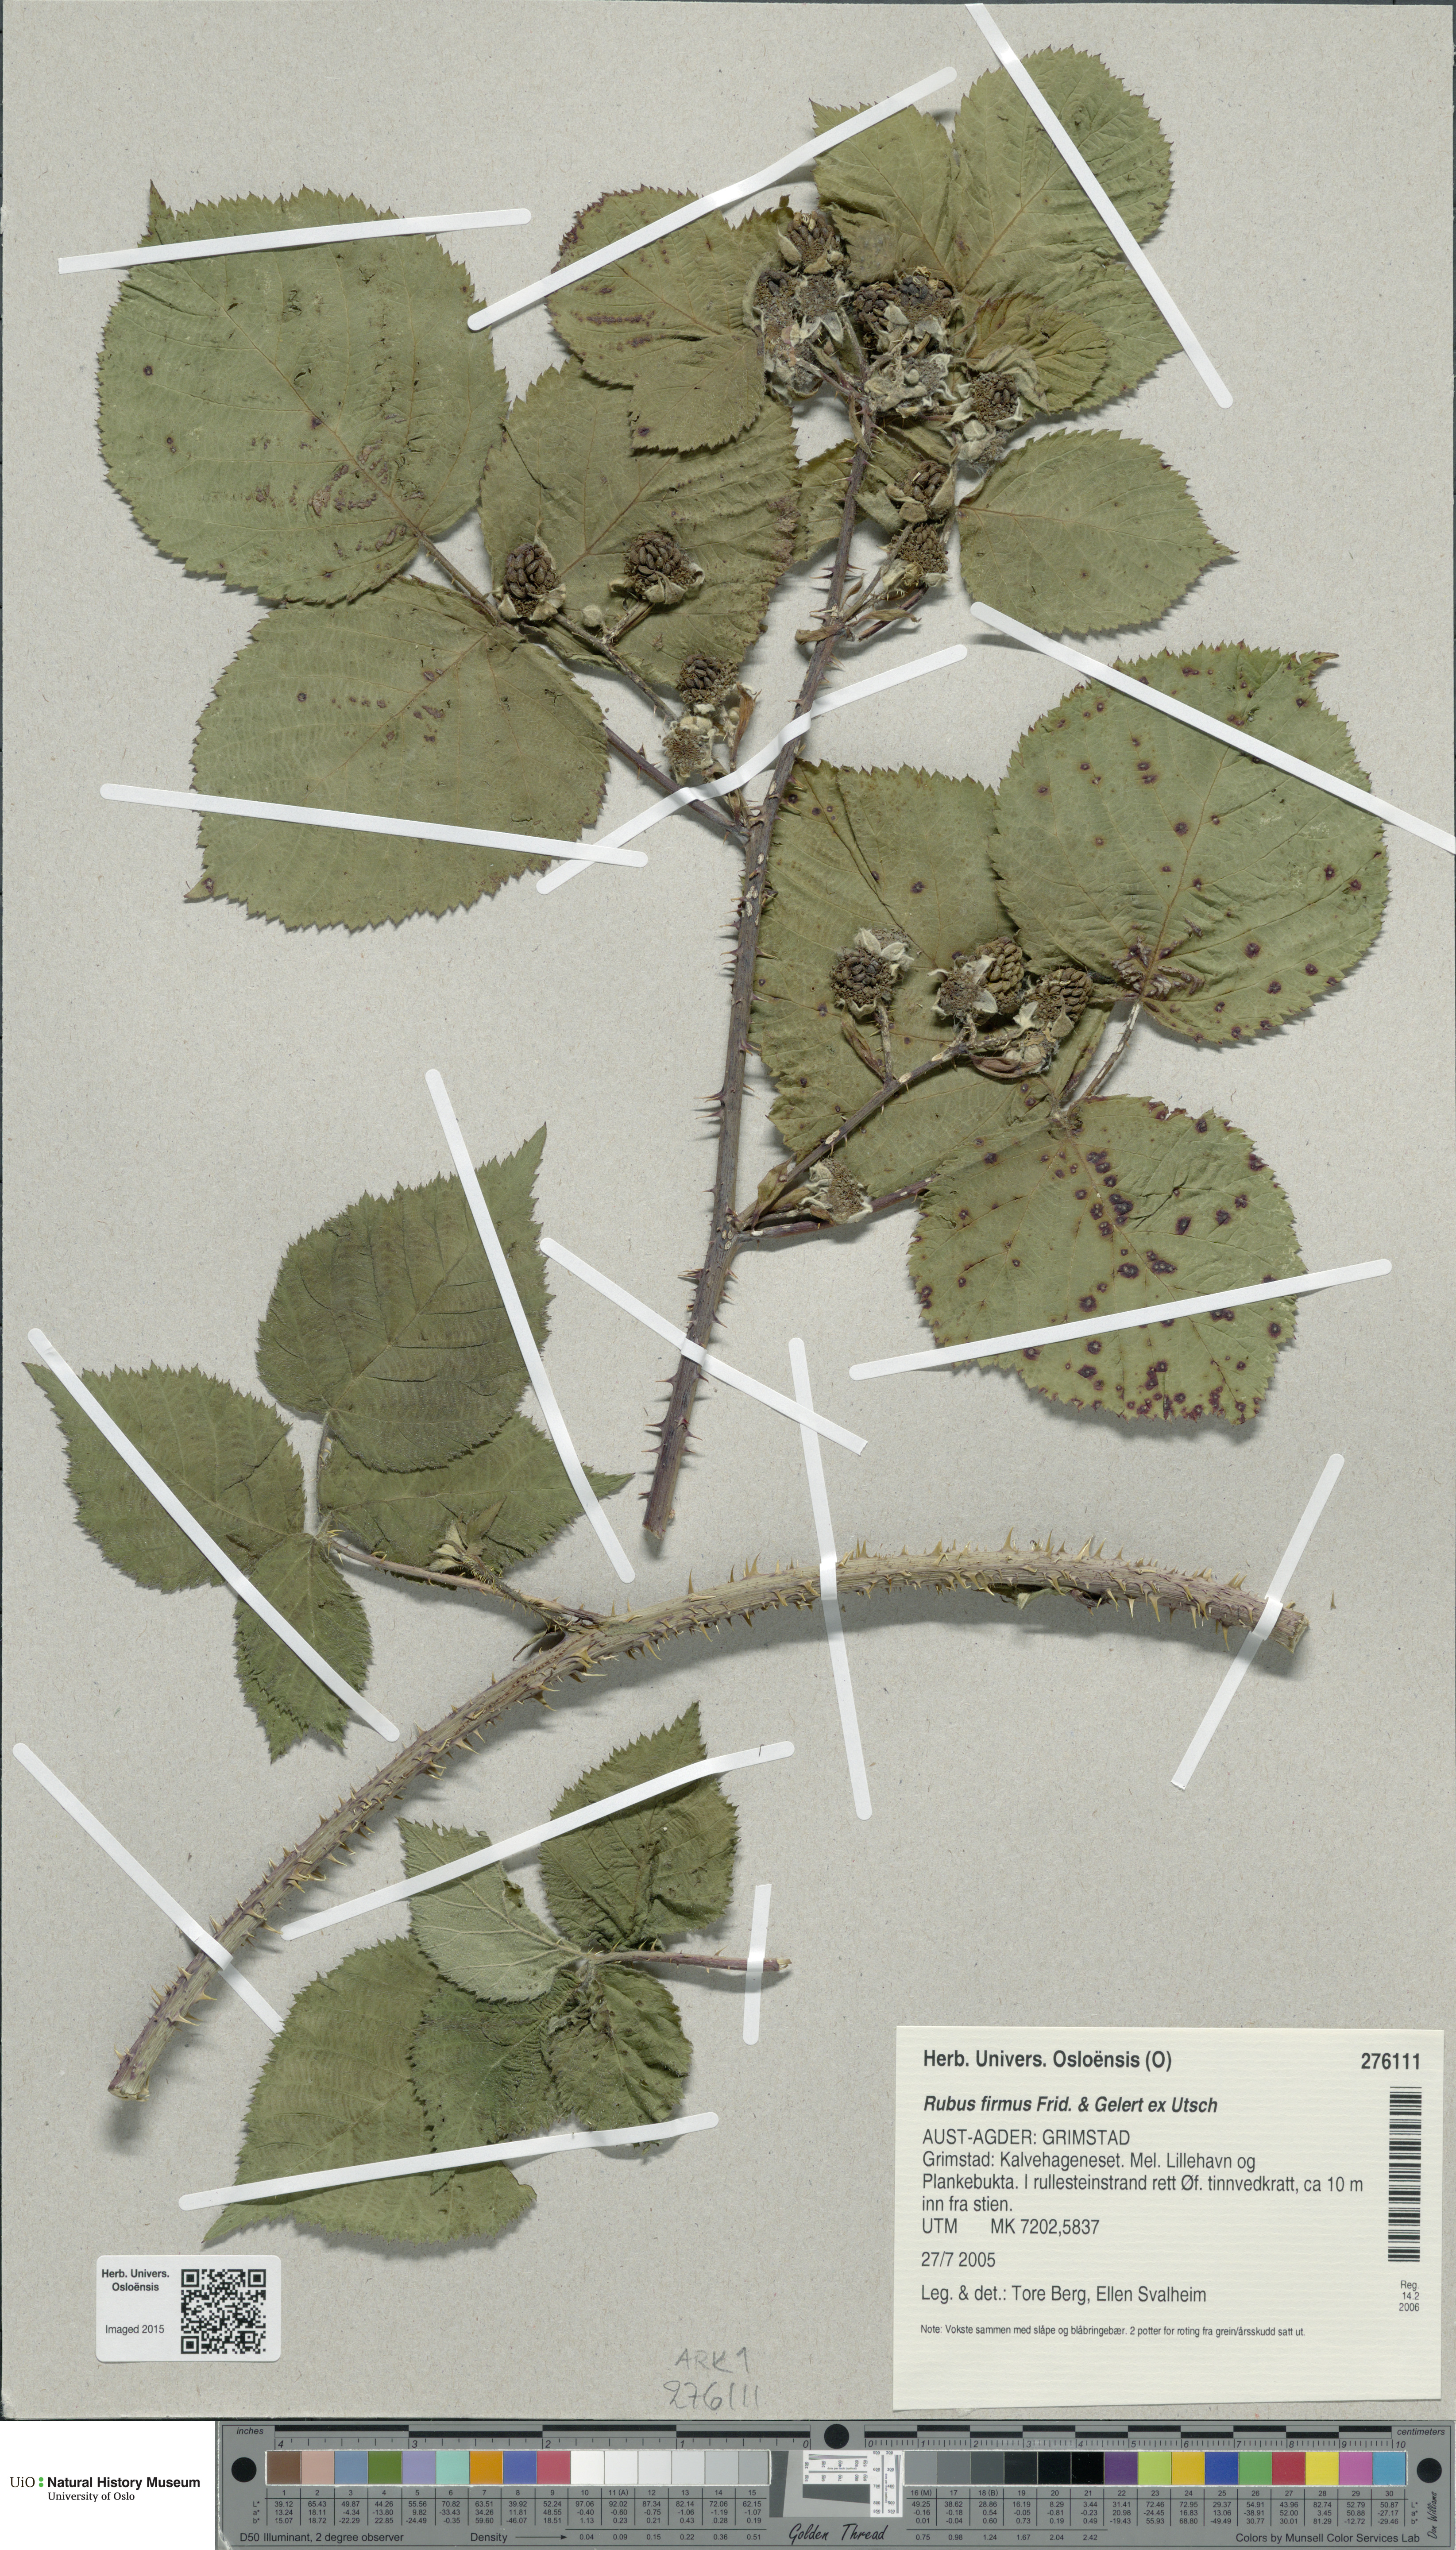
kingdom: Plantae
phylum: Tracheophyta
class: Magnoliopsida
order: Rosales
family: Rosaceae
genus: Rubus
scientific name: Rubus firmus
